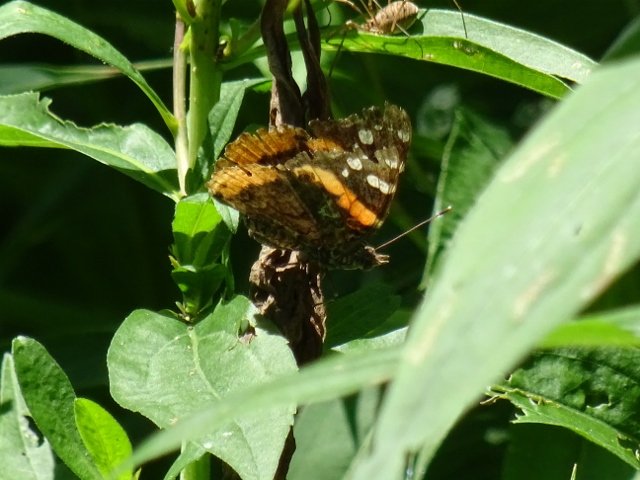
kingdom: Animalia
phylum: Arthropoda
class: Insecta
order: Lepidoptera
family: Nymphalidae
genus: Vanessa
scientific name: Vanessa atalanta
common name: Red Admiral
